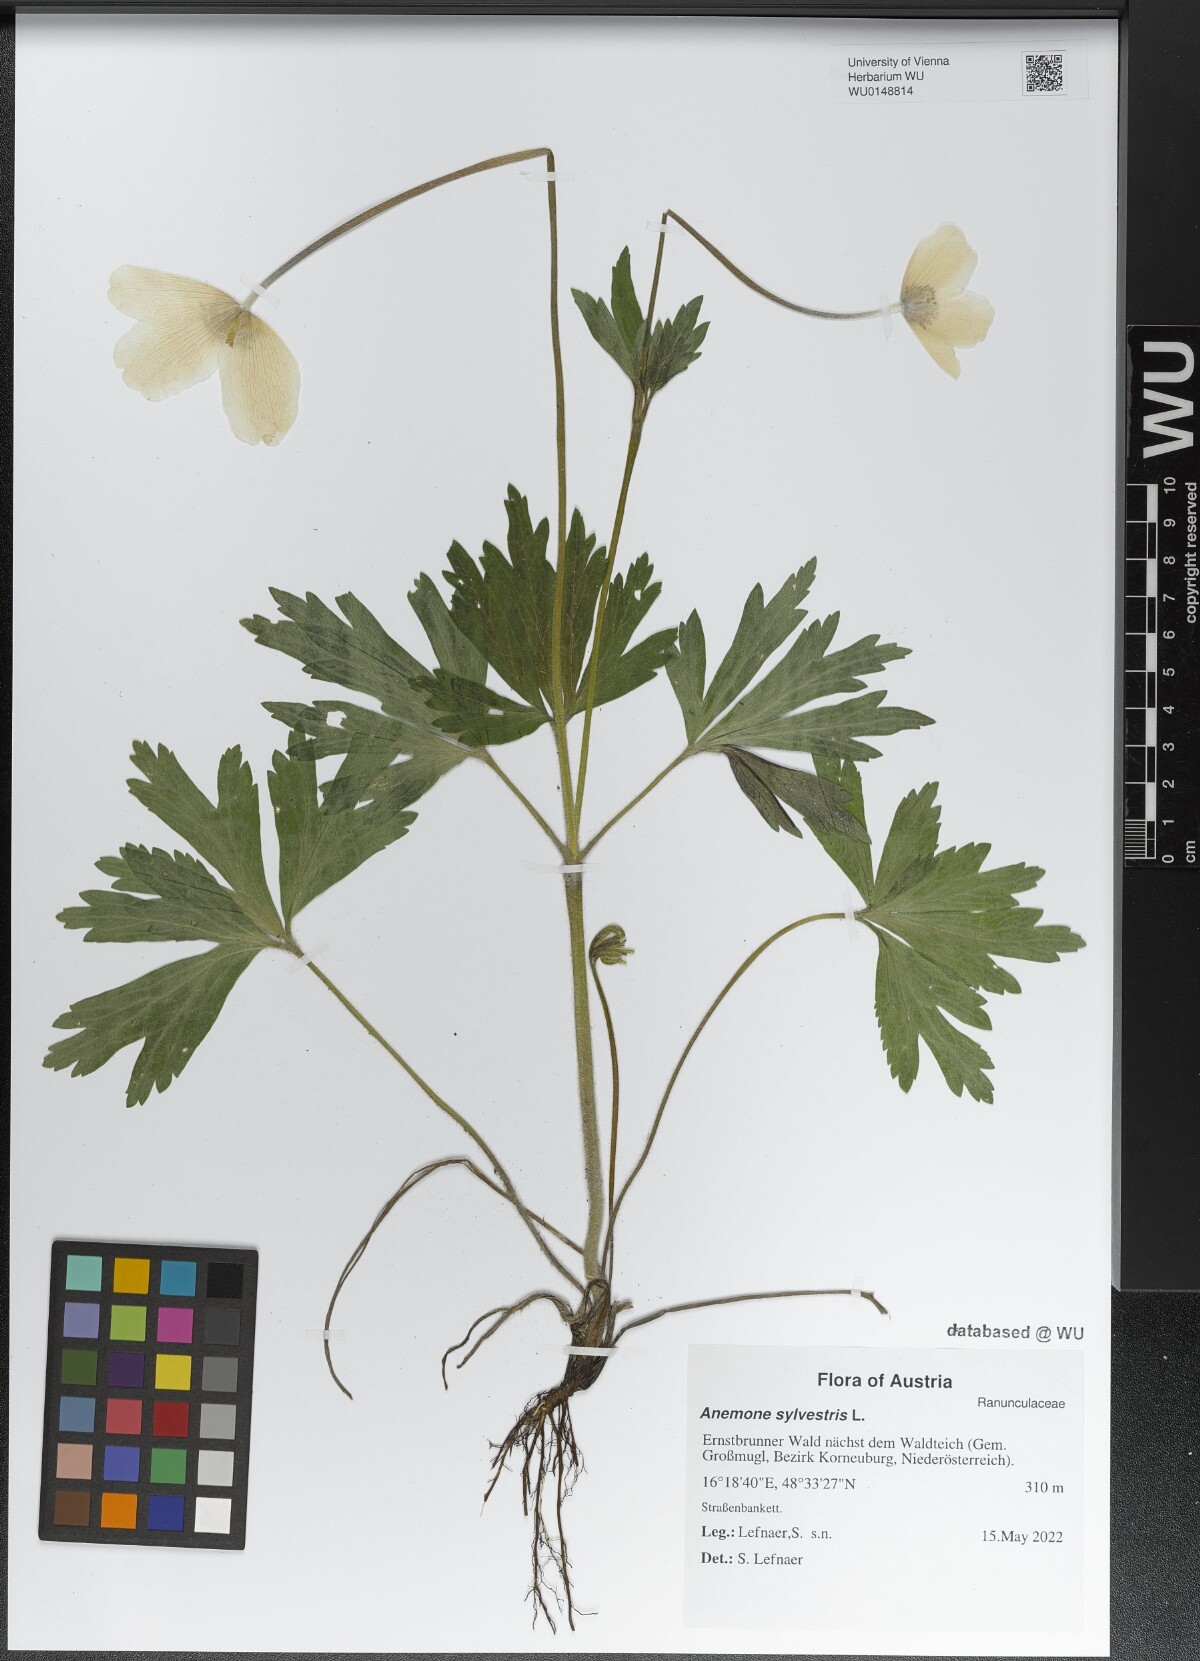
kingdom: Plantae
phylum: Tracheophyta
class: Magnoliopsida
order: Ranunculales
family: Ranunculaceae
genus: Anemone
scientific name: Anemone sylvestris
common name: Snowdrop anemone
